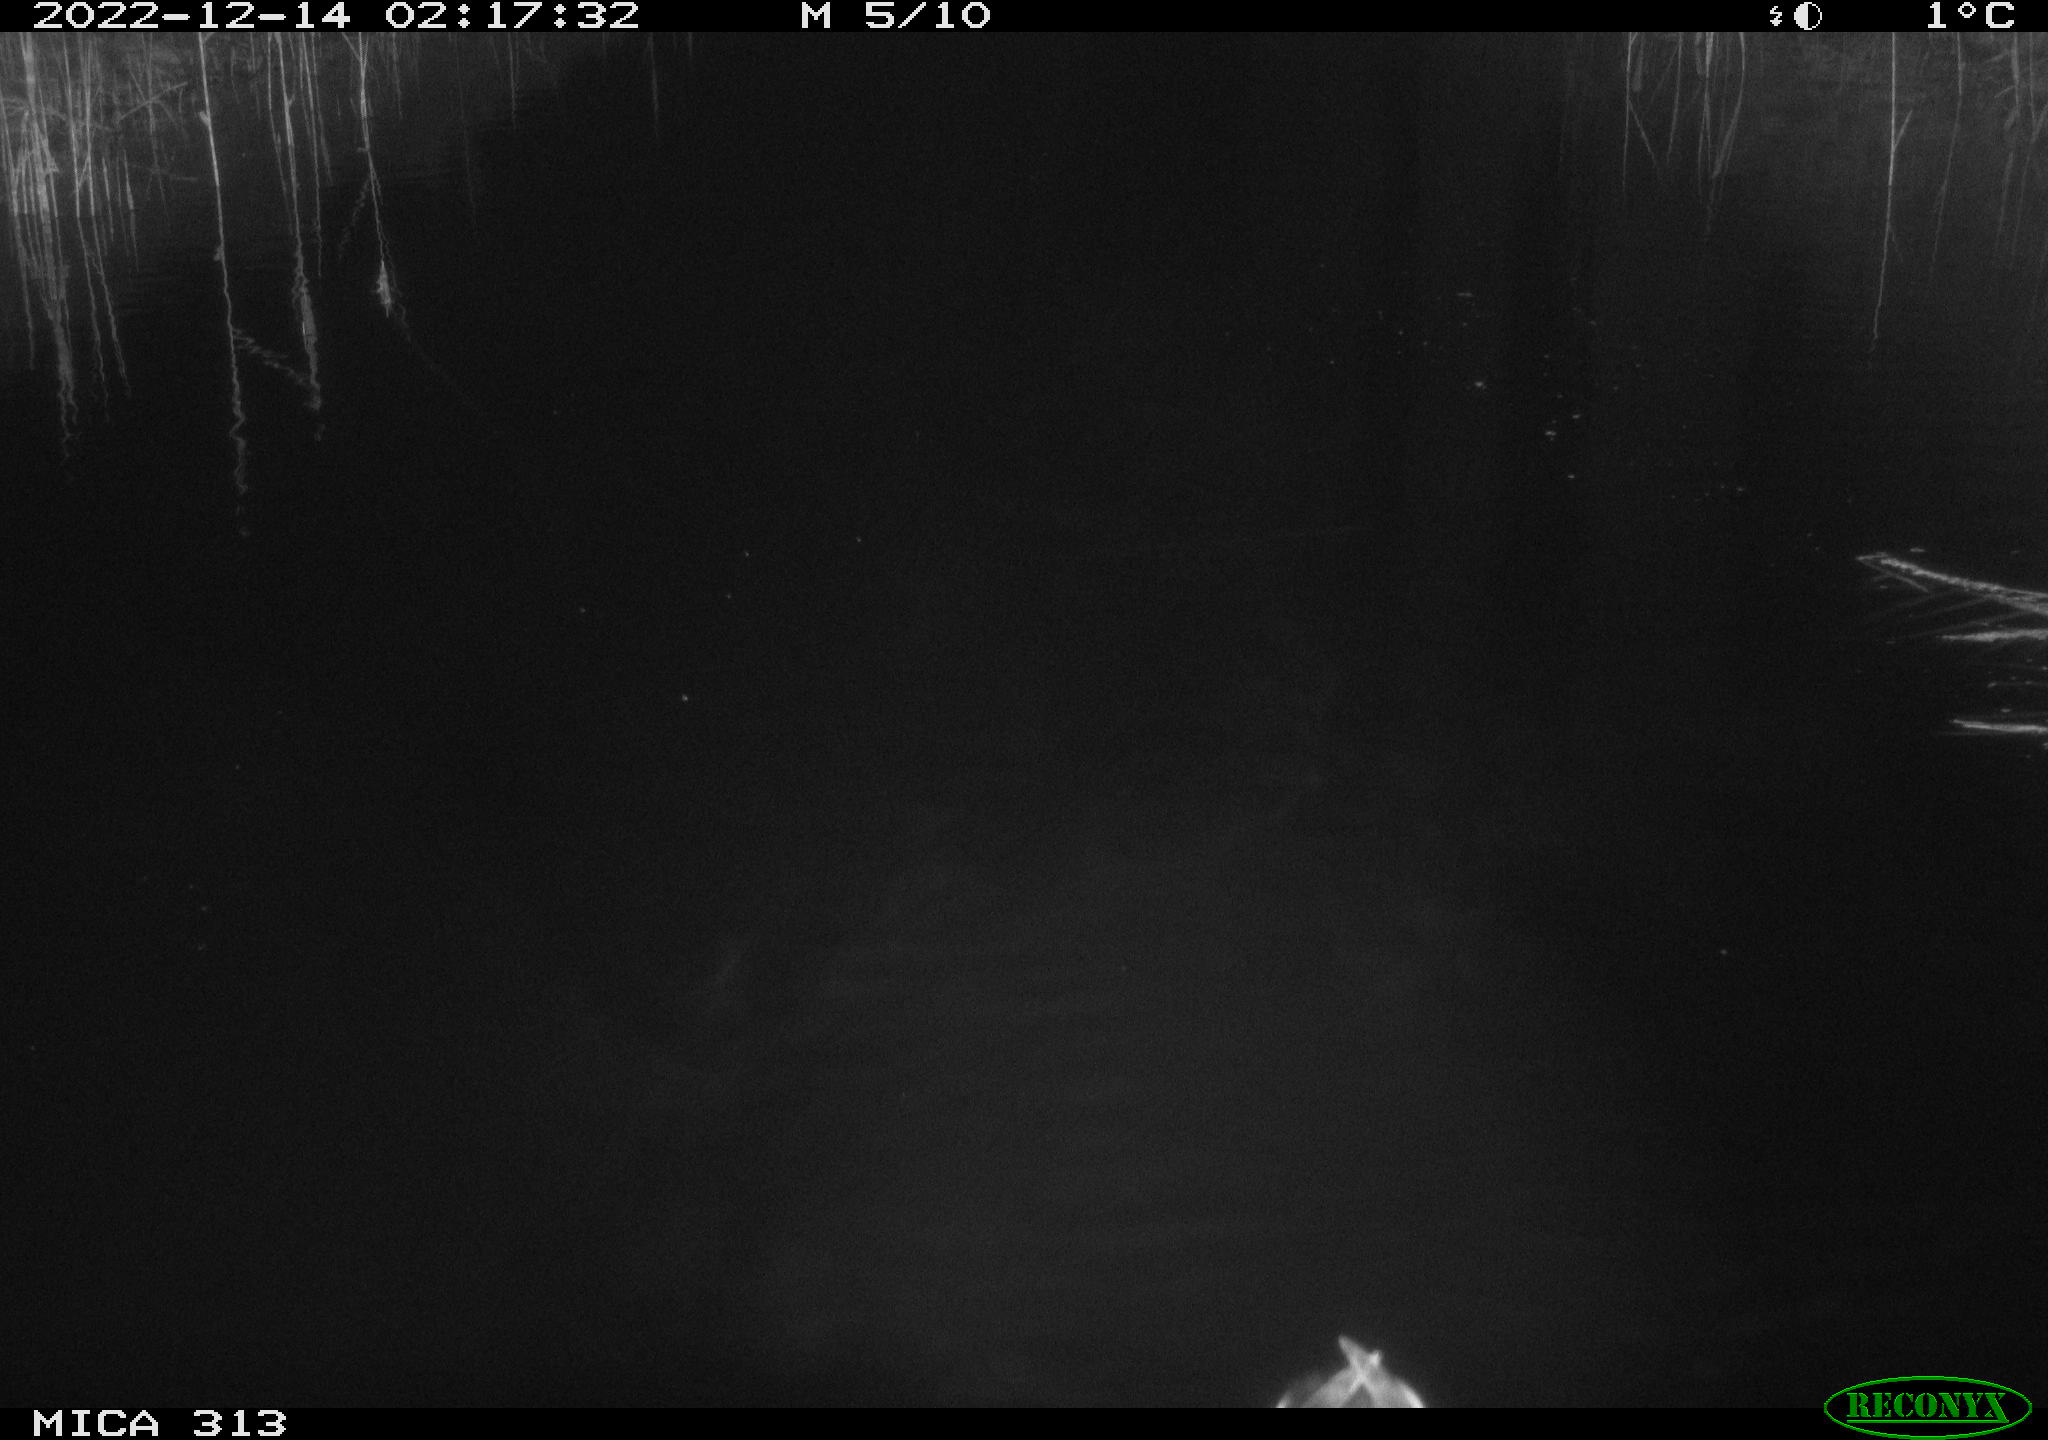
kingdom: Animalia
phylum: Chordata
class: Aves
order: Anseriformes
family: Anatidae
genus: Anas
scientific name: Anas
